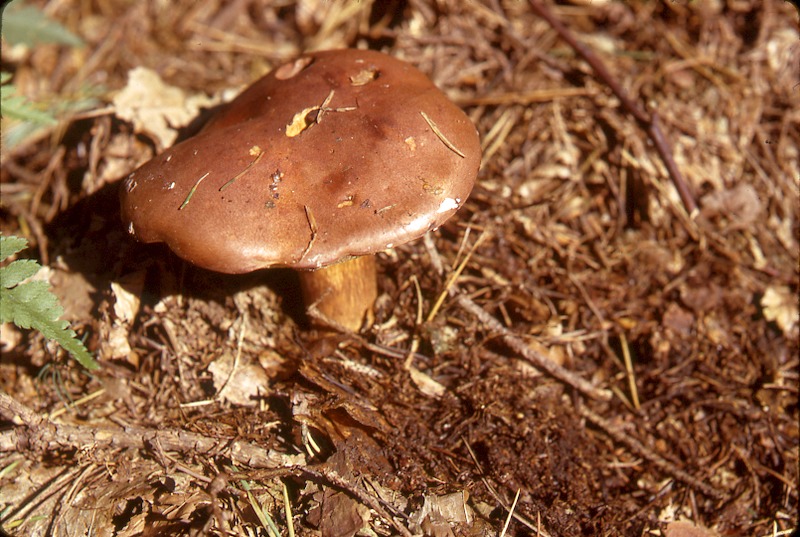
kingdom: Fungi
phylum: Basidiomycota
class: Agaricomycetes
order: Boletales
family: Boletaceae
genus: Imleria
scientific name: Imleria badia
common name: Bay bolete
